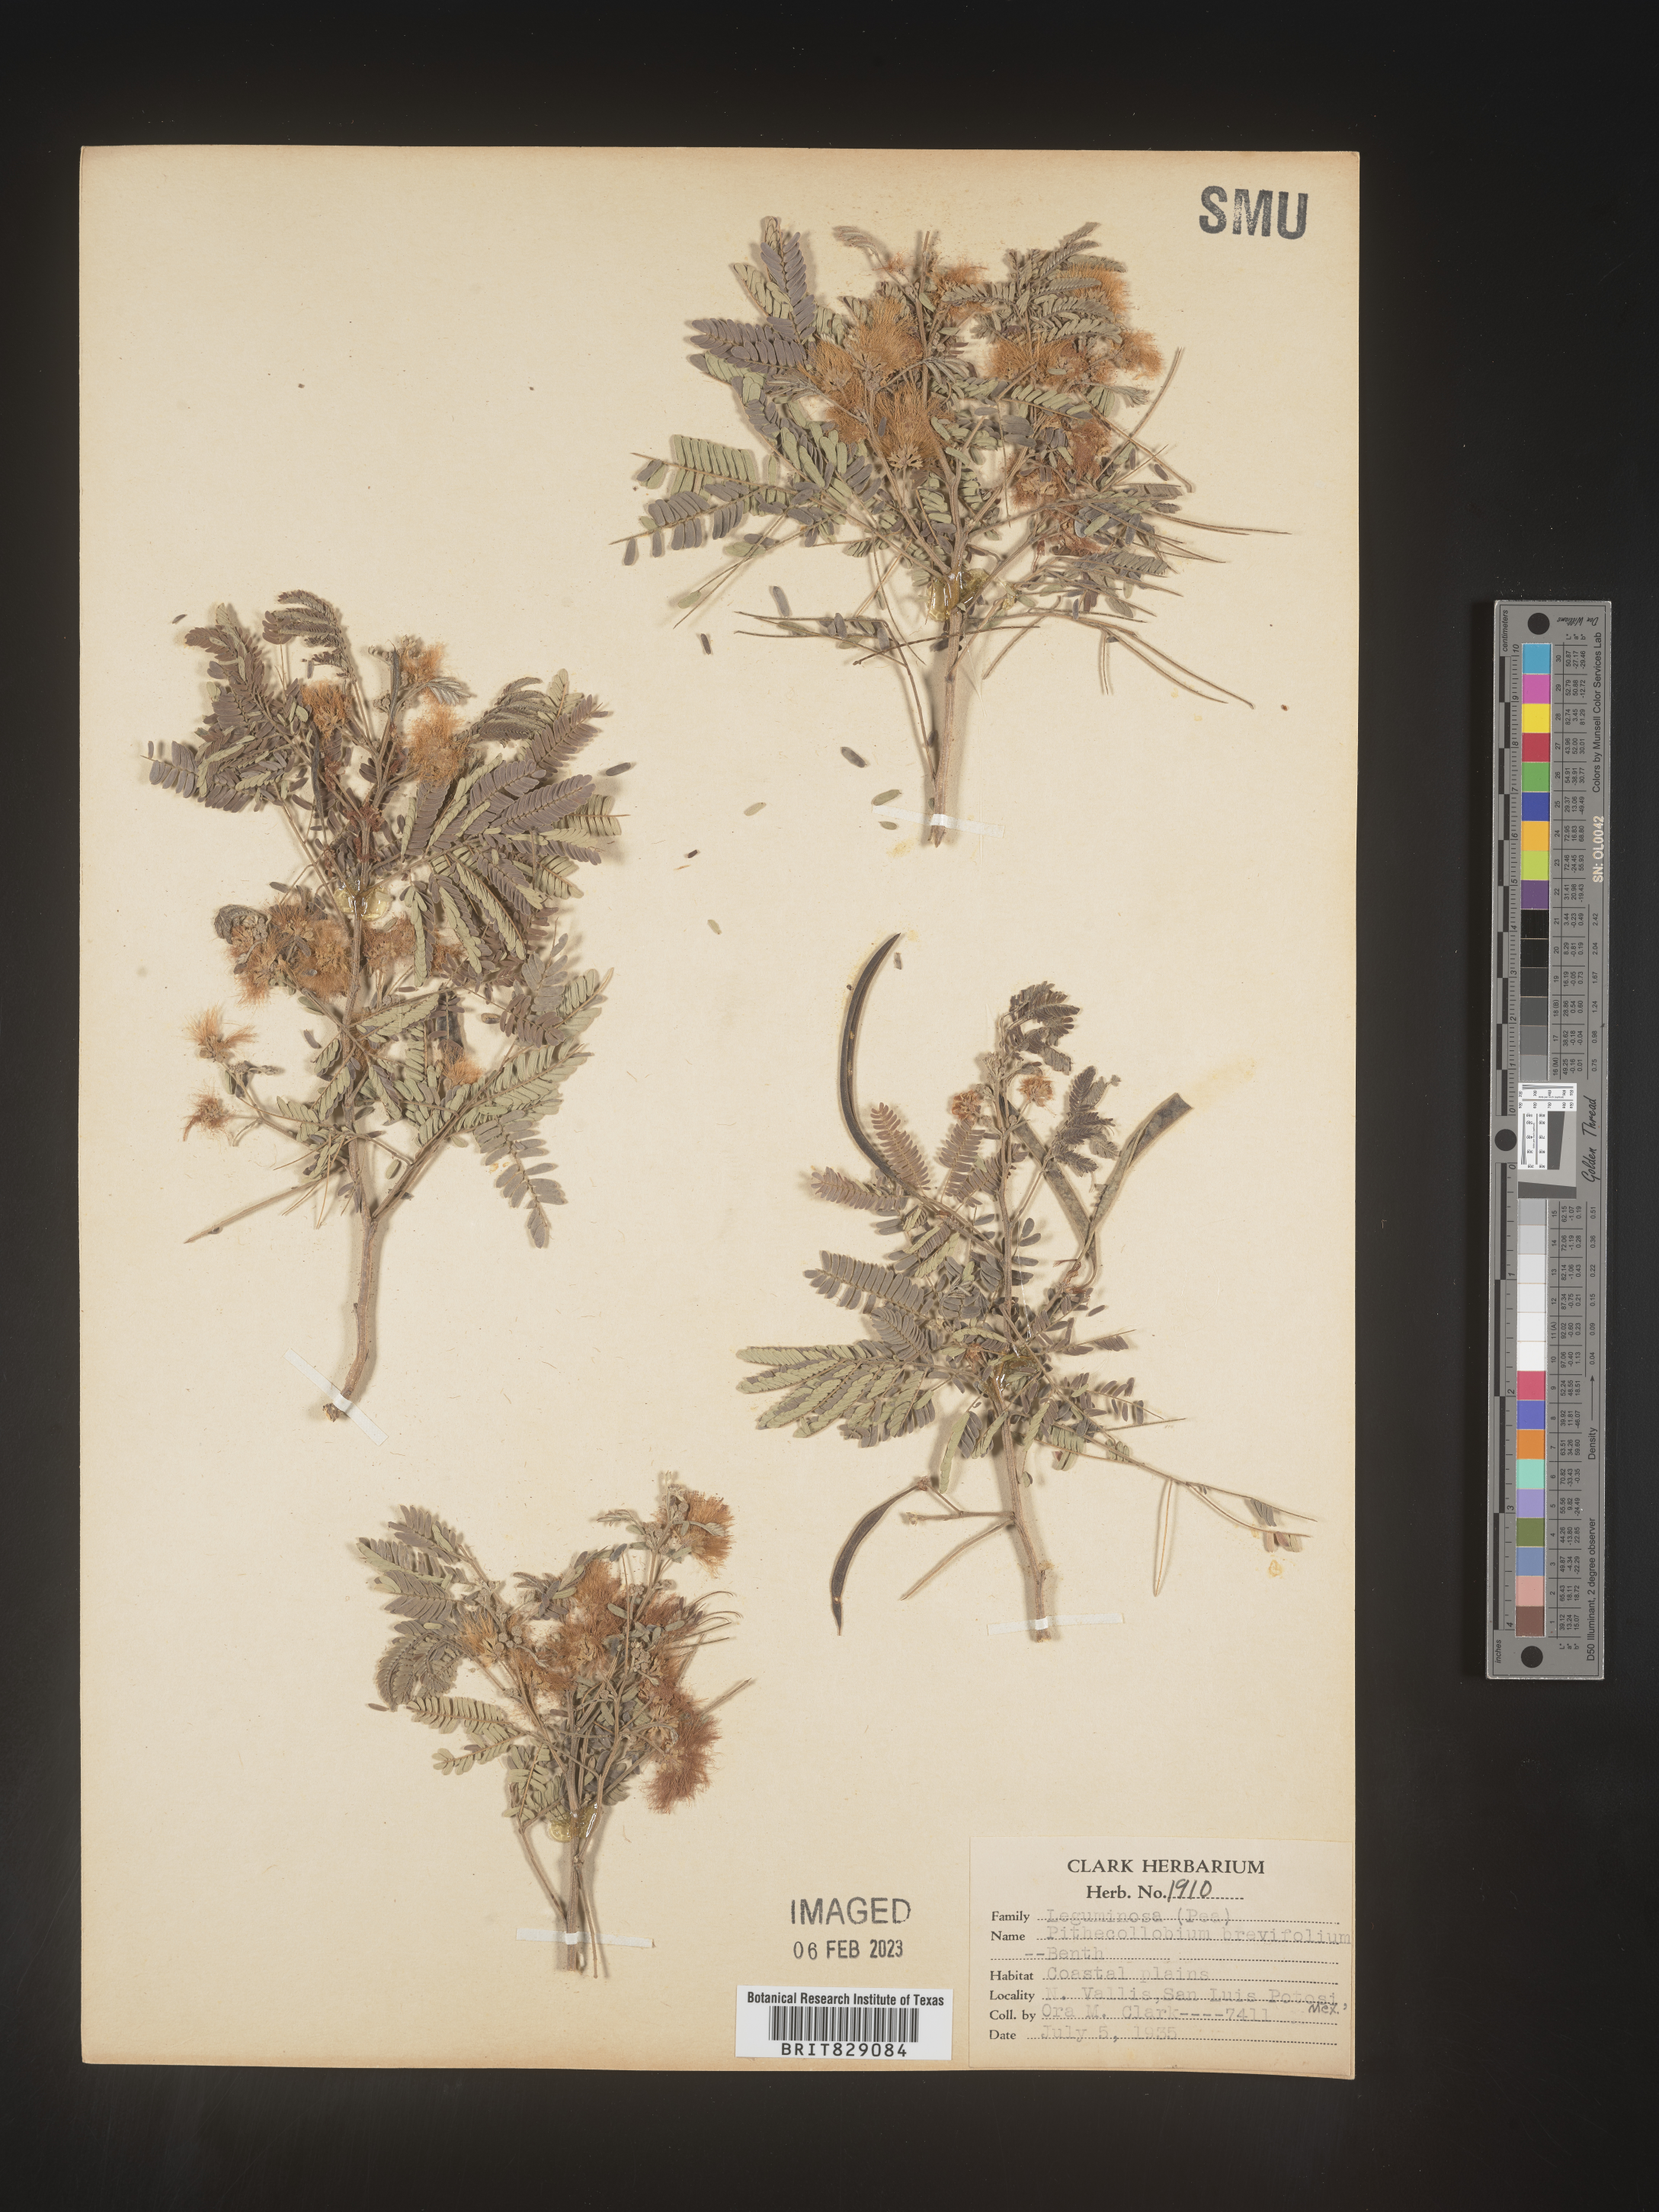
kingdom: Plantae
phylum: Tracheophyta
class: Magnoliopsida
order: Fabales
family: Fabaceae
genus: Pithecellobium
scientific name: Pithecellobium
